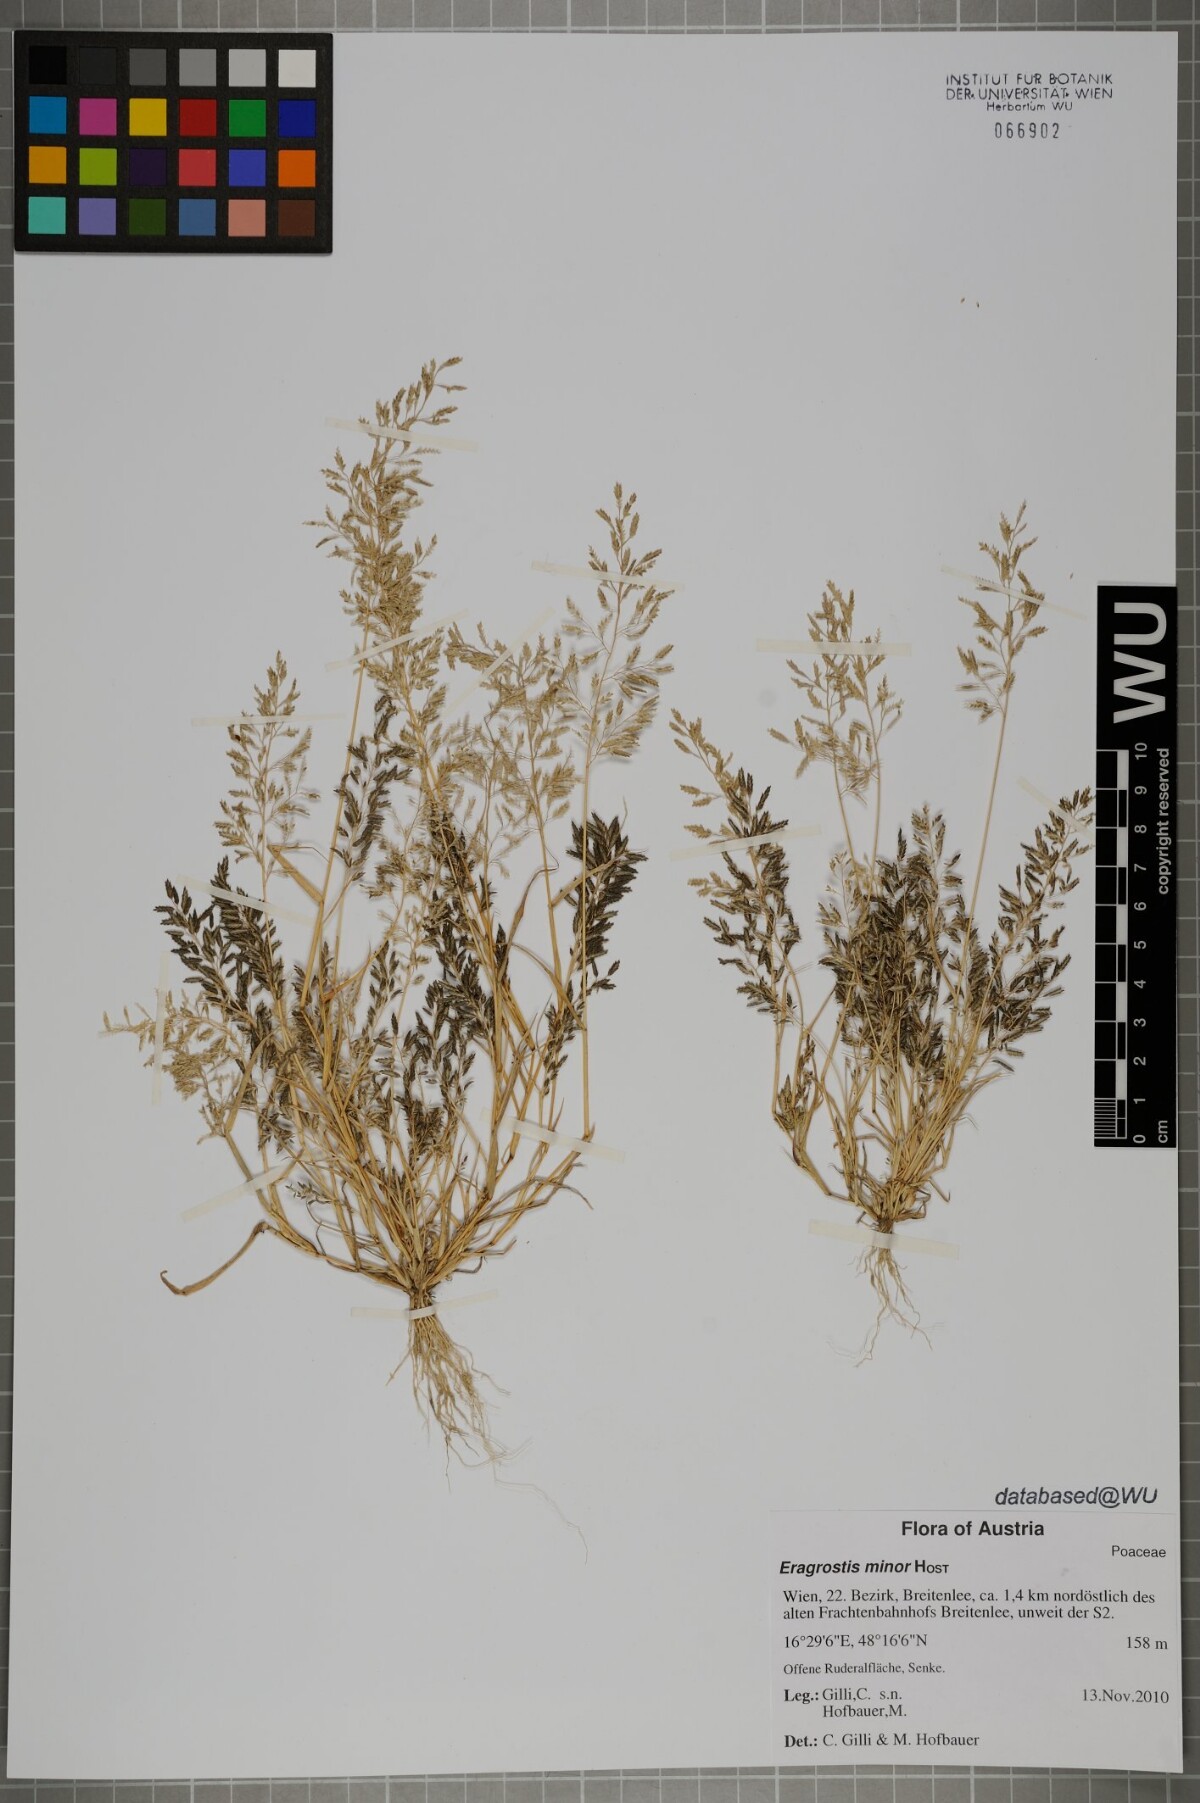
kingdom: Plantae
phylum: Tracheophyta
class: Liliopsida
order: Poales
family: Poaceae
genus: Eragrostis
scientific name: Eragrostis minor
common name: Small love-grass
